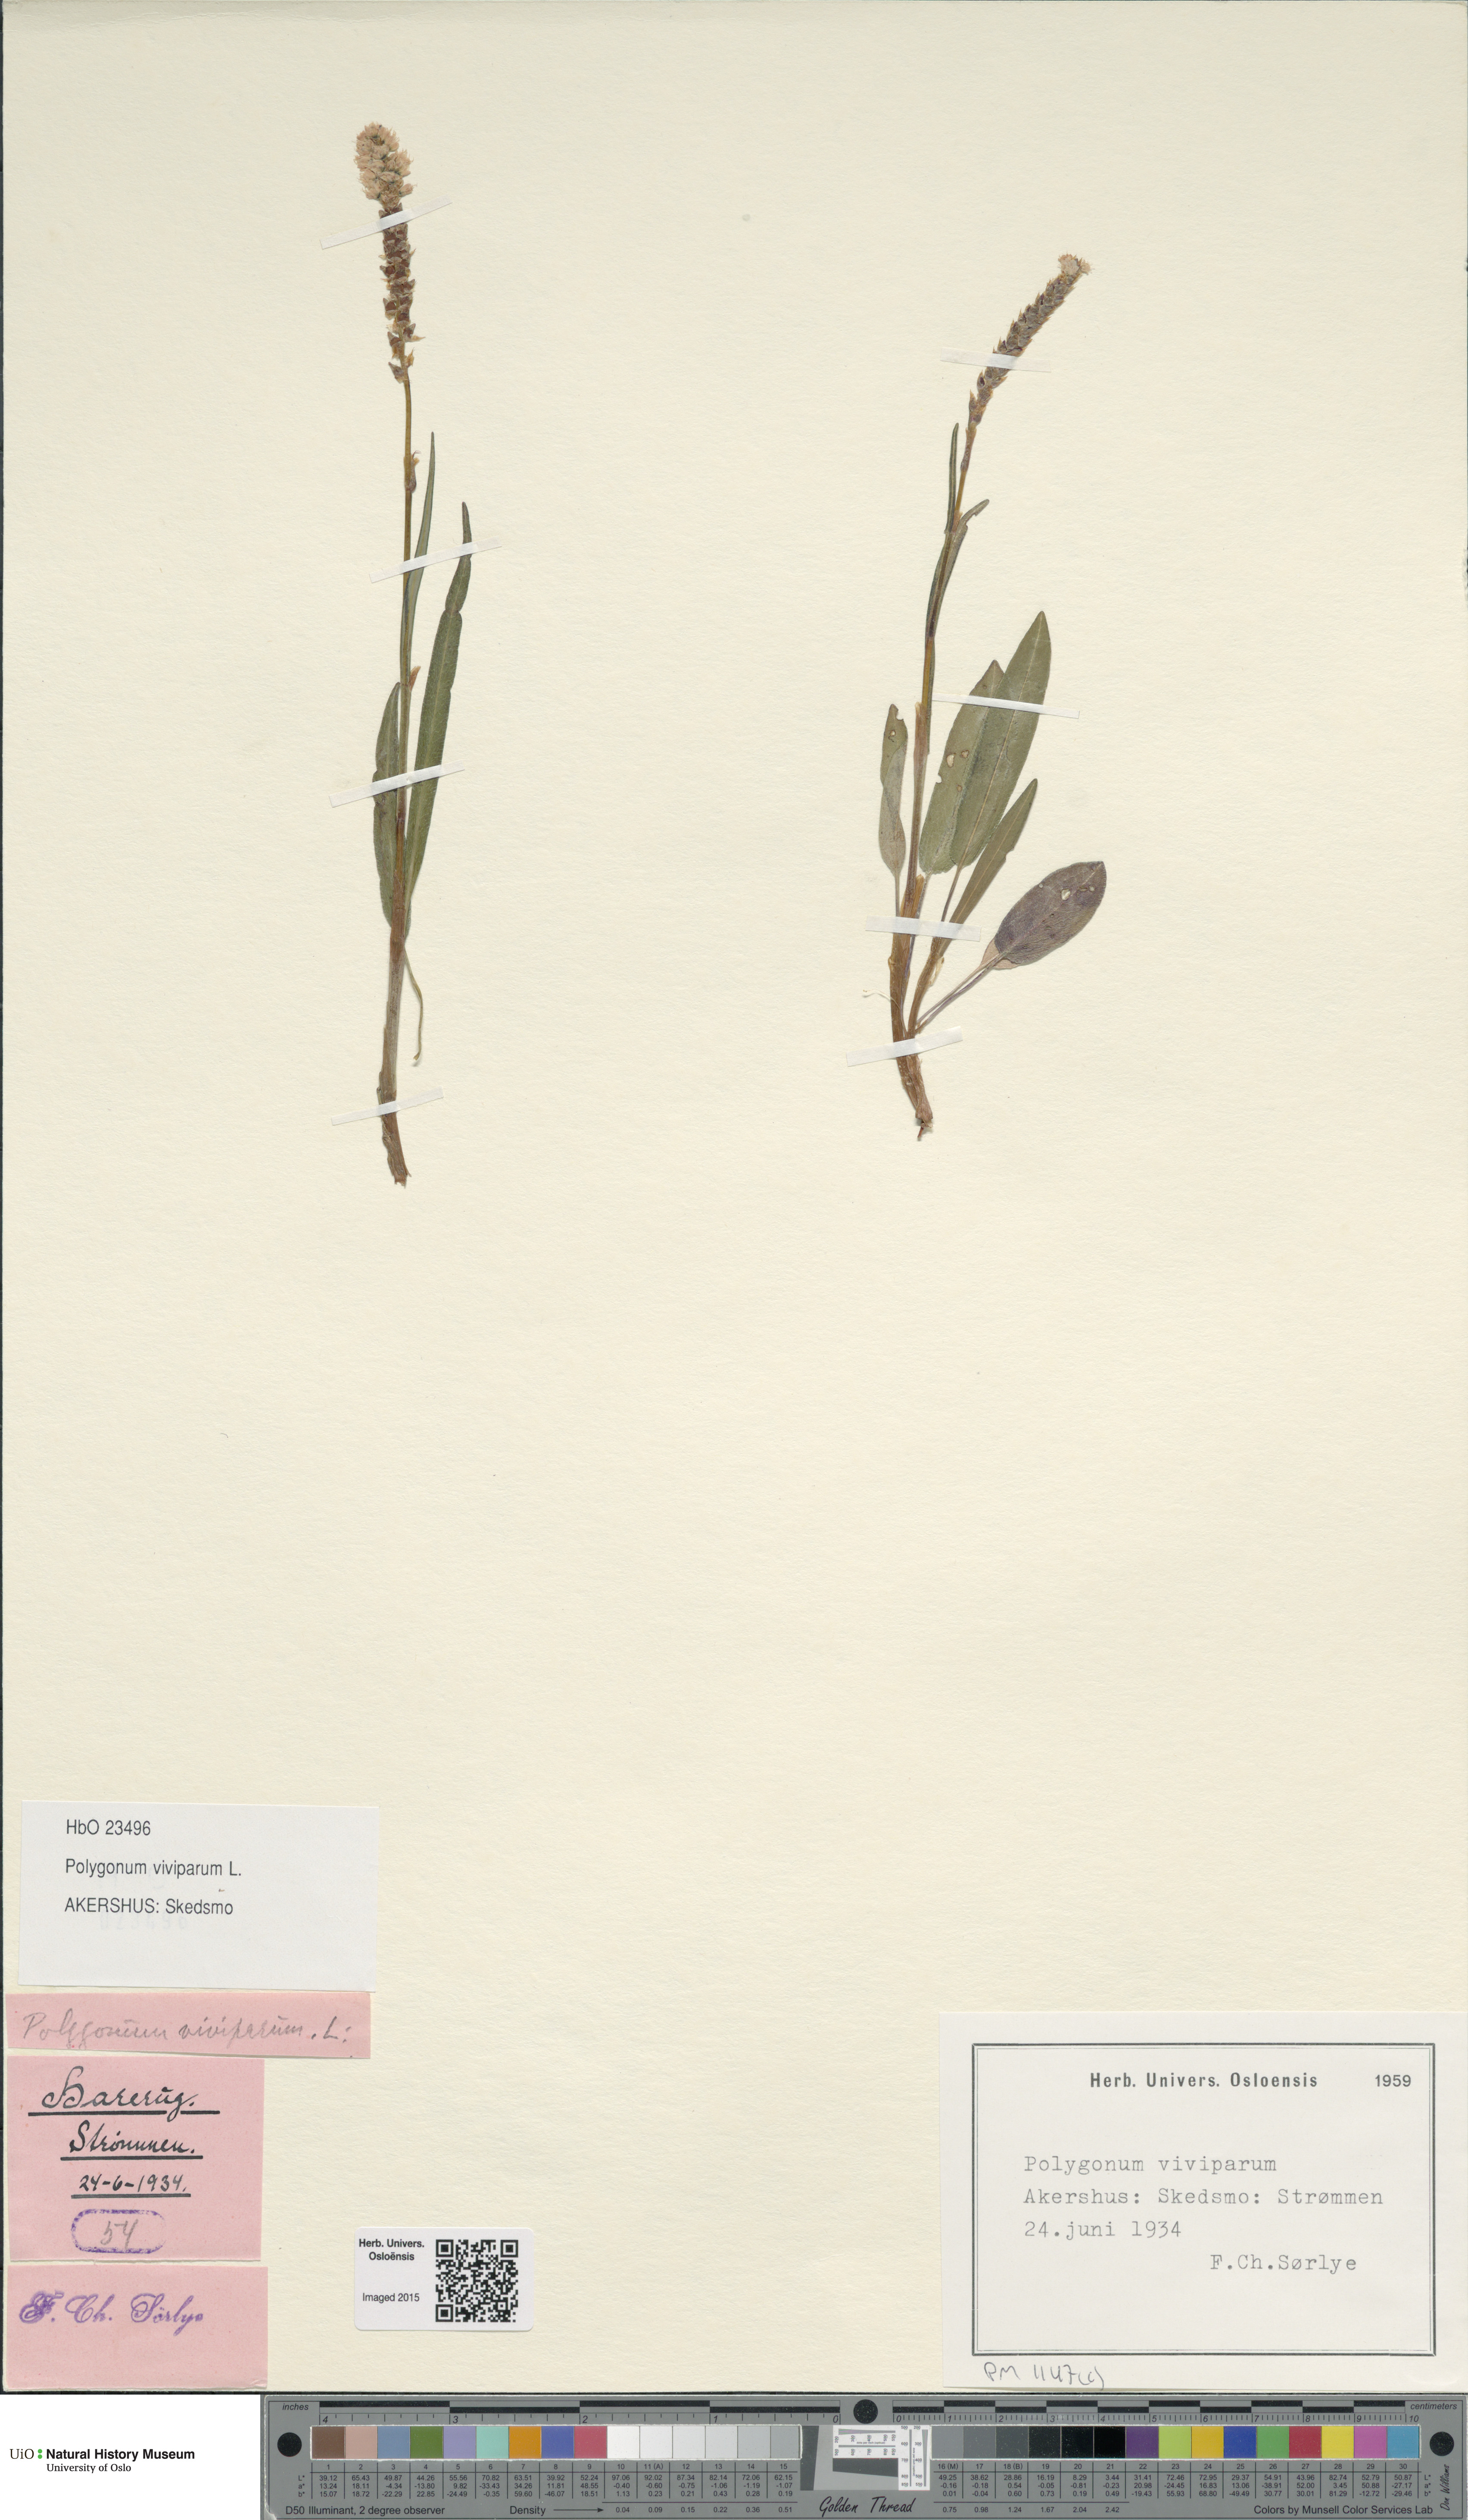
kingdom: Plantae
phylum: Tracheophyta
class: Magnoliopsida
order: Caryophyllales
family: Polygonaceae
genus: Bistorta
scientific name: Bistorta vivipara
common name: Alpine bistort
